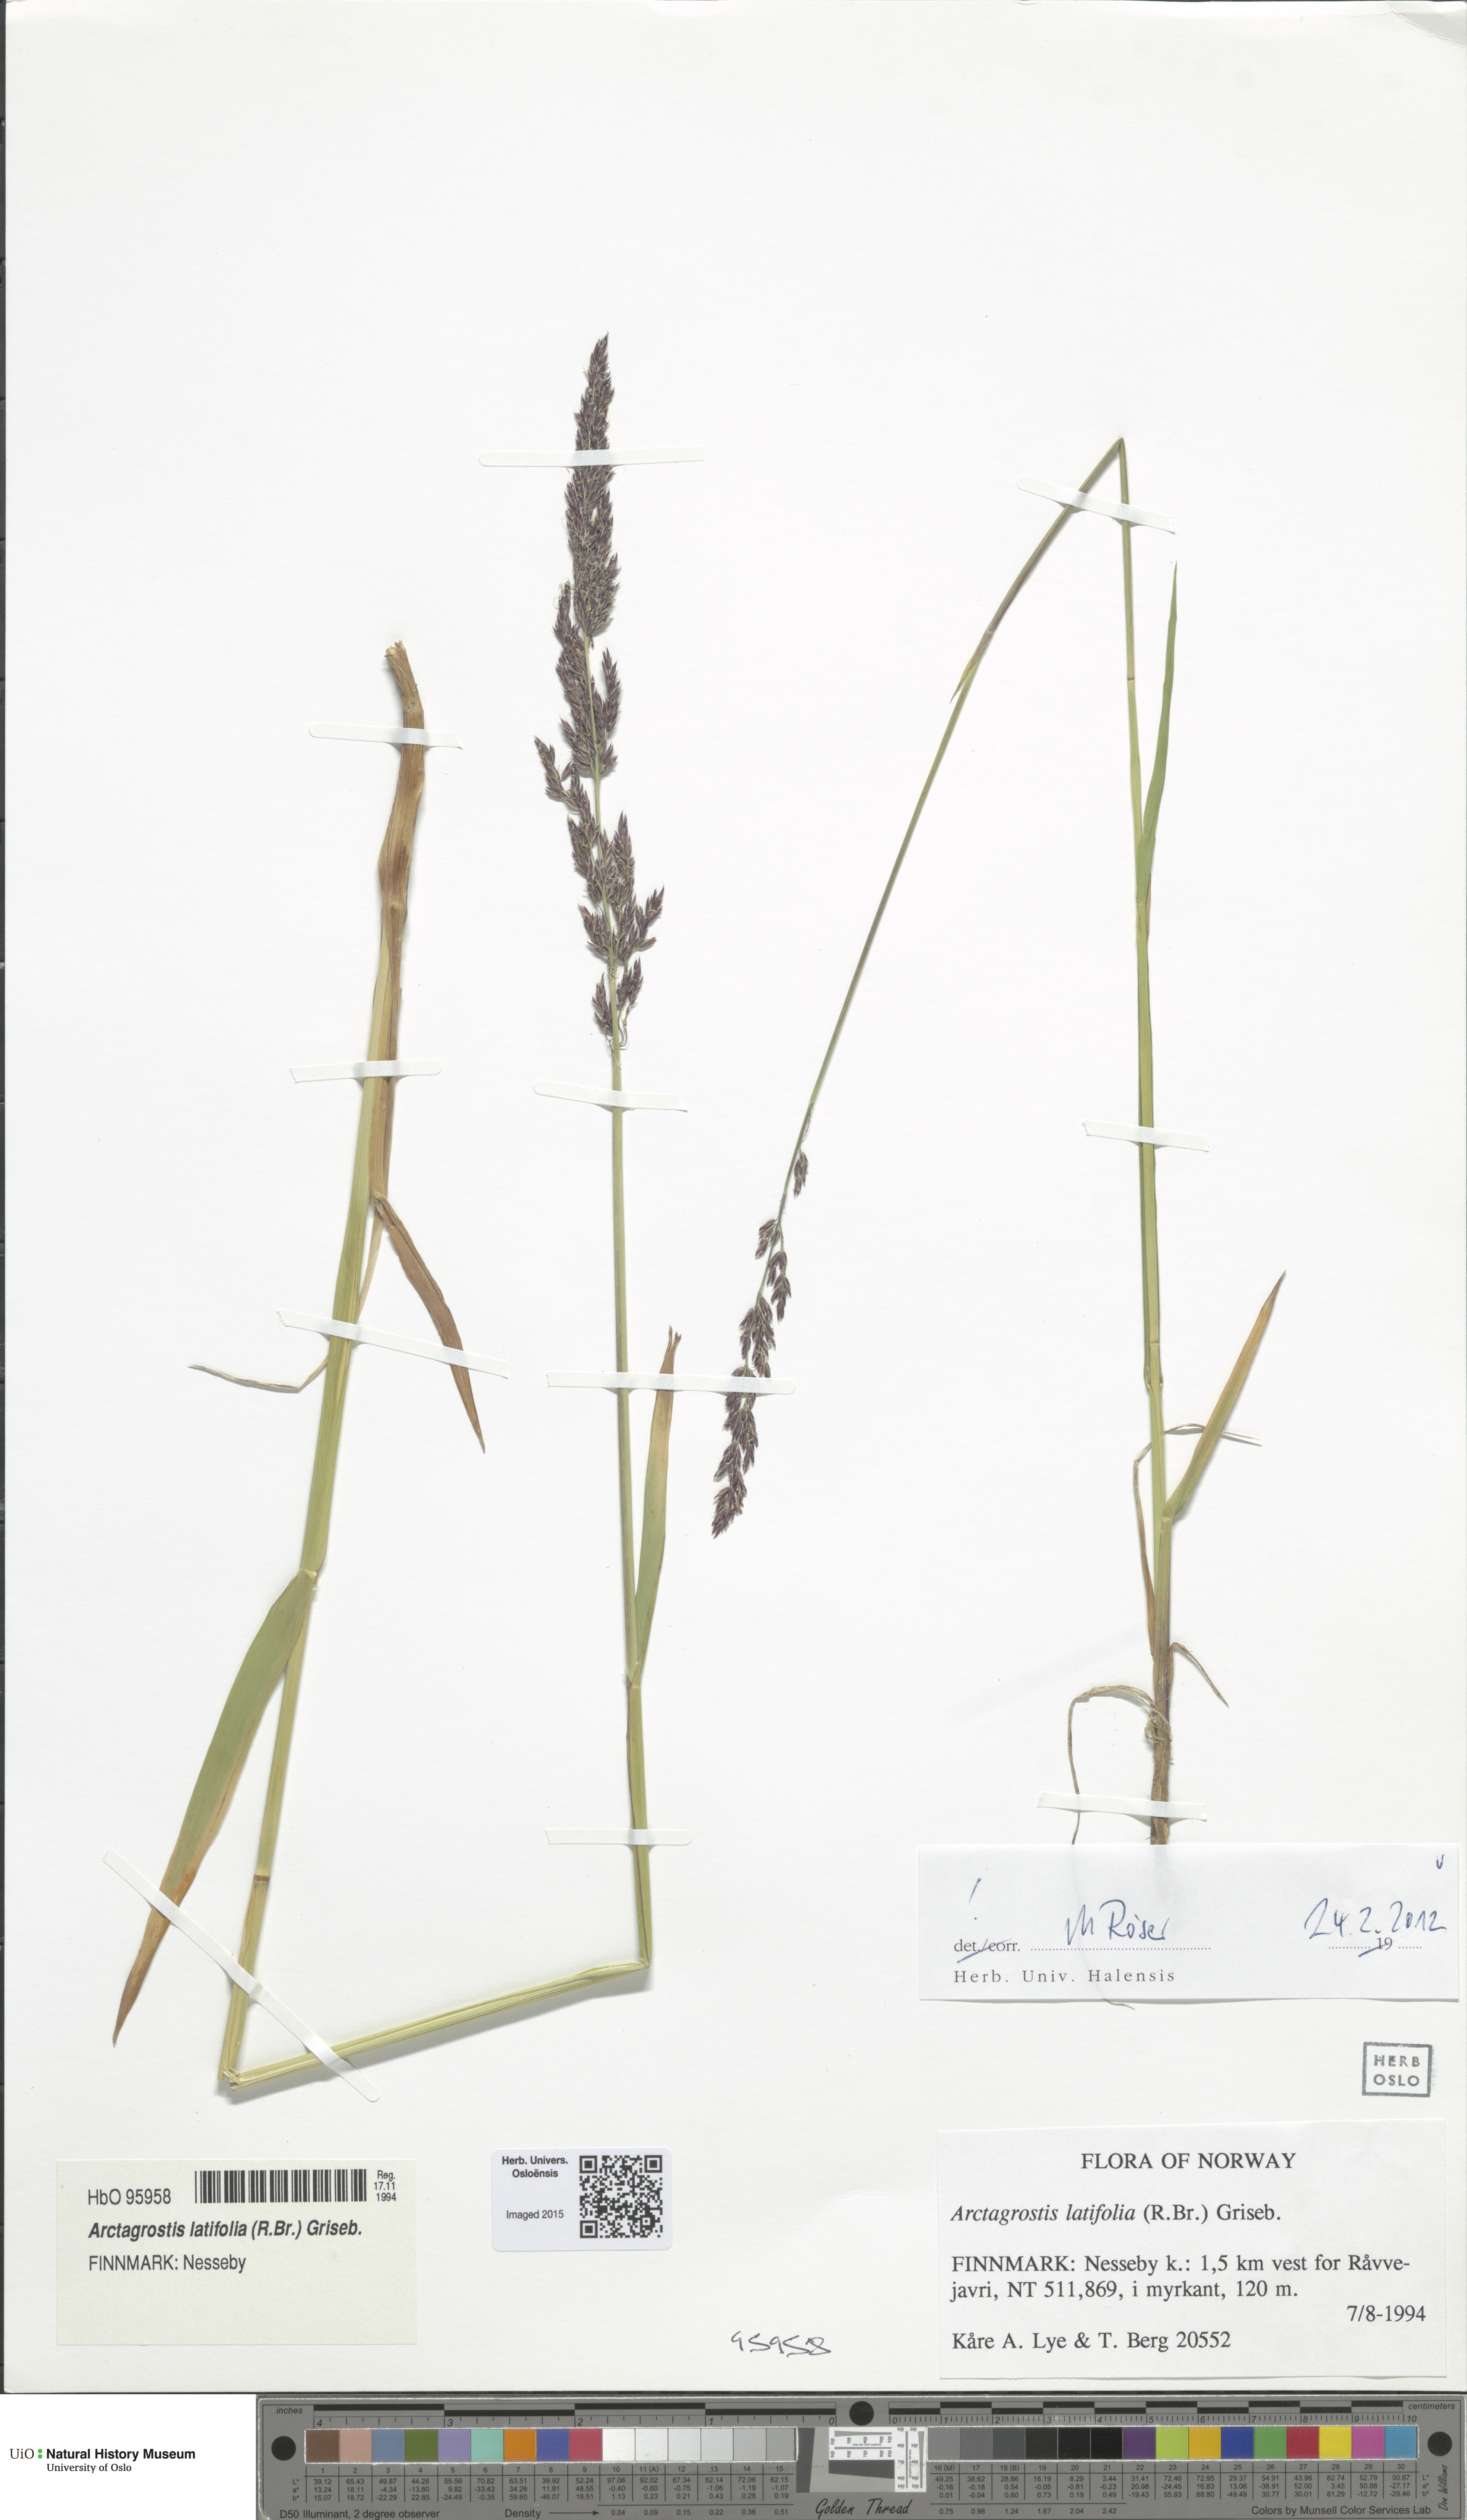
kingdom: Plantae
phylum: Tracheophyta
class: Liliopsida
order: Poales
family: Poaceae
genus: Arctagrostis
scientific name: Arctagrostis latifolia
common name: Arctic grass
